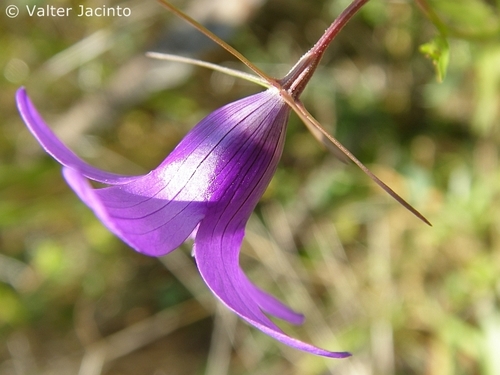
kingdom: Plantae
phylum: Tracheophyta
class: Magnoliopsida
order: Asterales
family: Campanulaceae
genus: Campanula
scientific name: Campanula lusitanica
